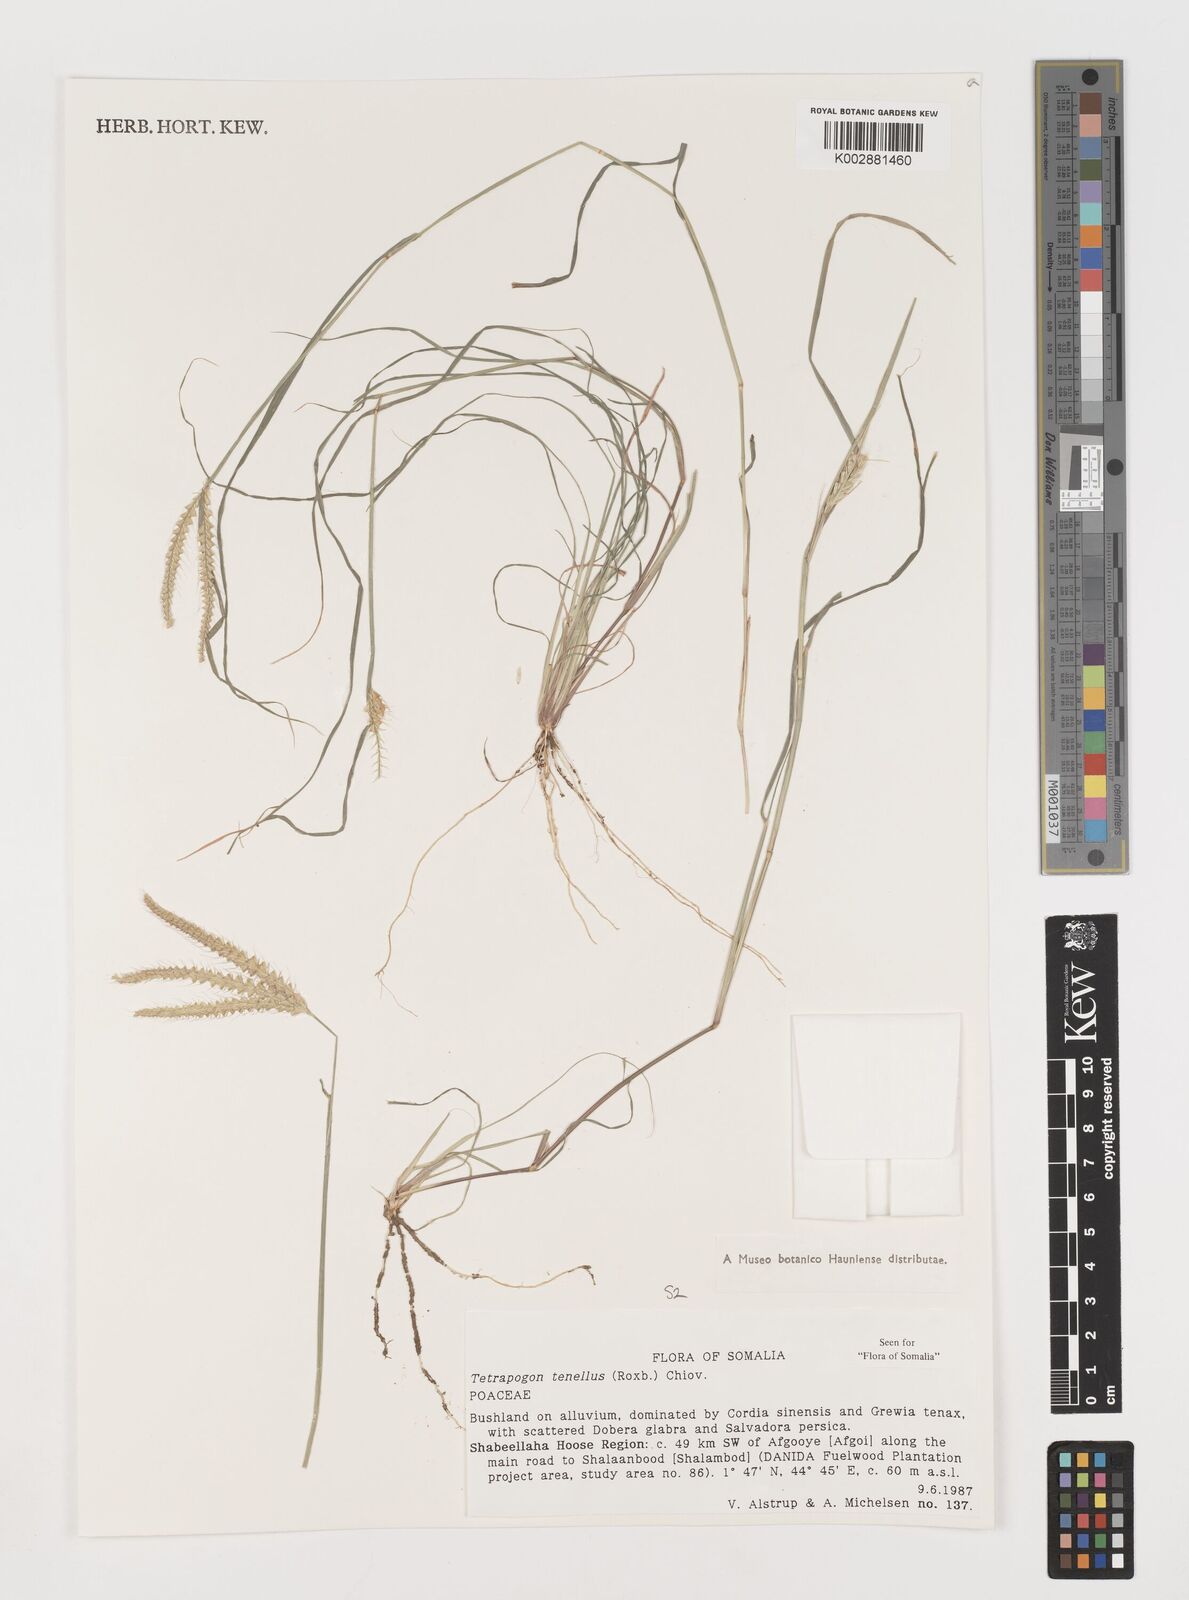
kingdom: Plantae
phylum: Tracheophyta
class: Liliopsida
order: Poales
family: Poaceae
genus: Tetrapogon
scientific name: Tetrapogon tenellus
